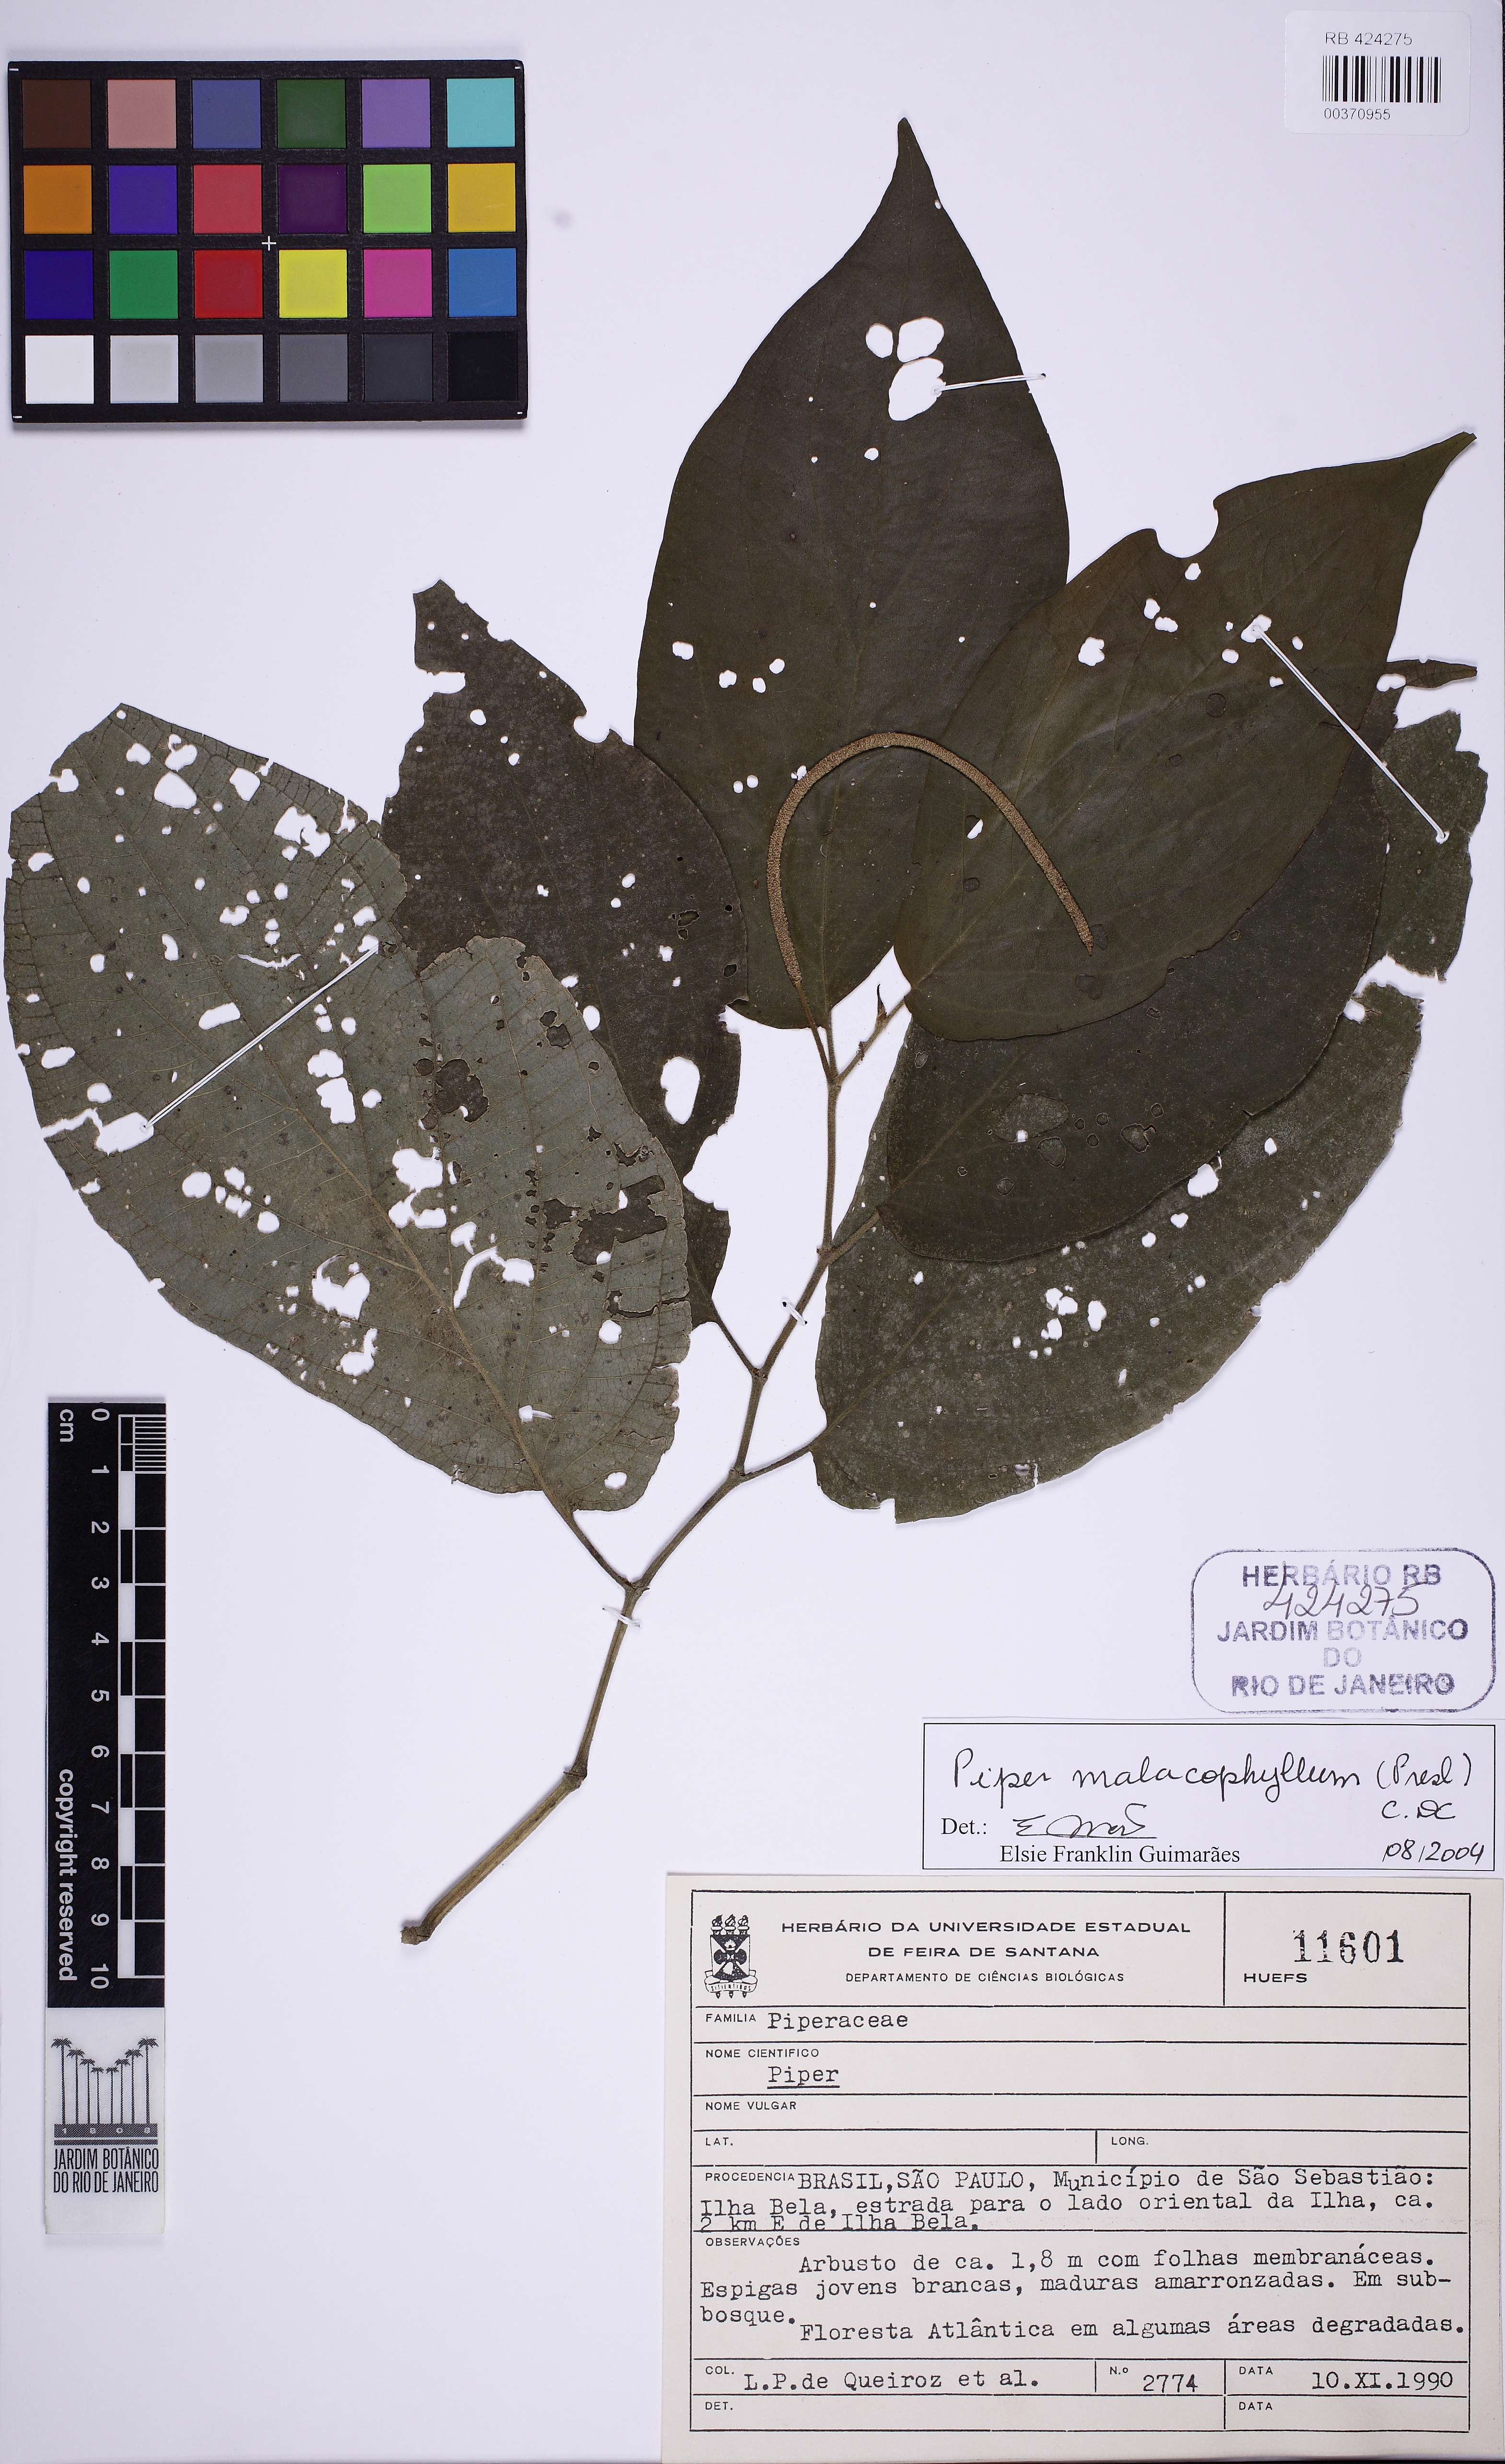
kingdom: Plantae
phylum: Tracheophyta
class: Magnoliopsida
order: Piperales
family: Piperaceae
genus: Piper
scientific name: Piper malacophyllum
